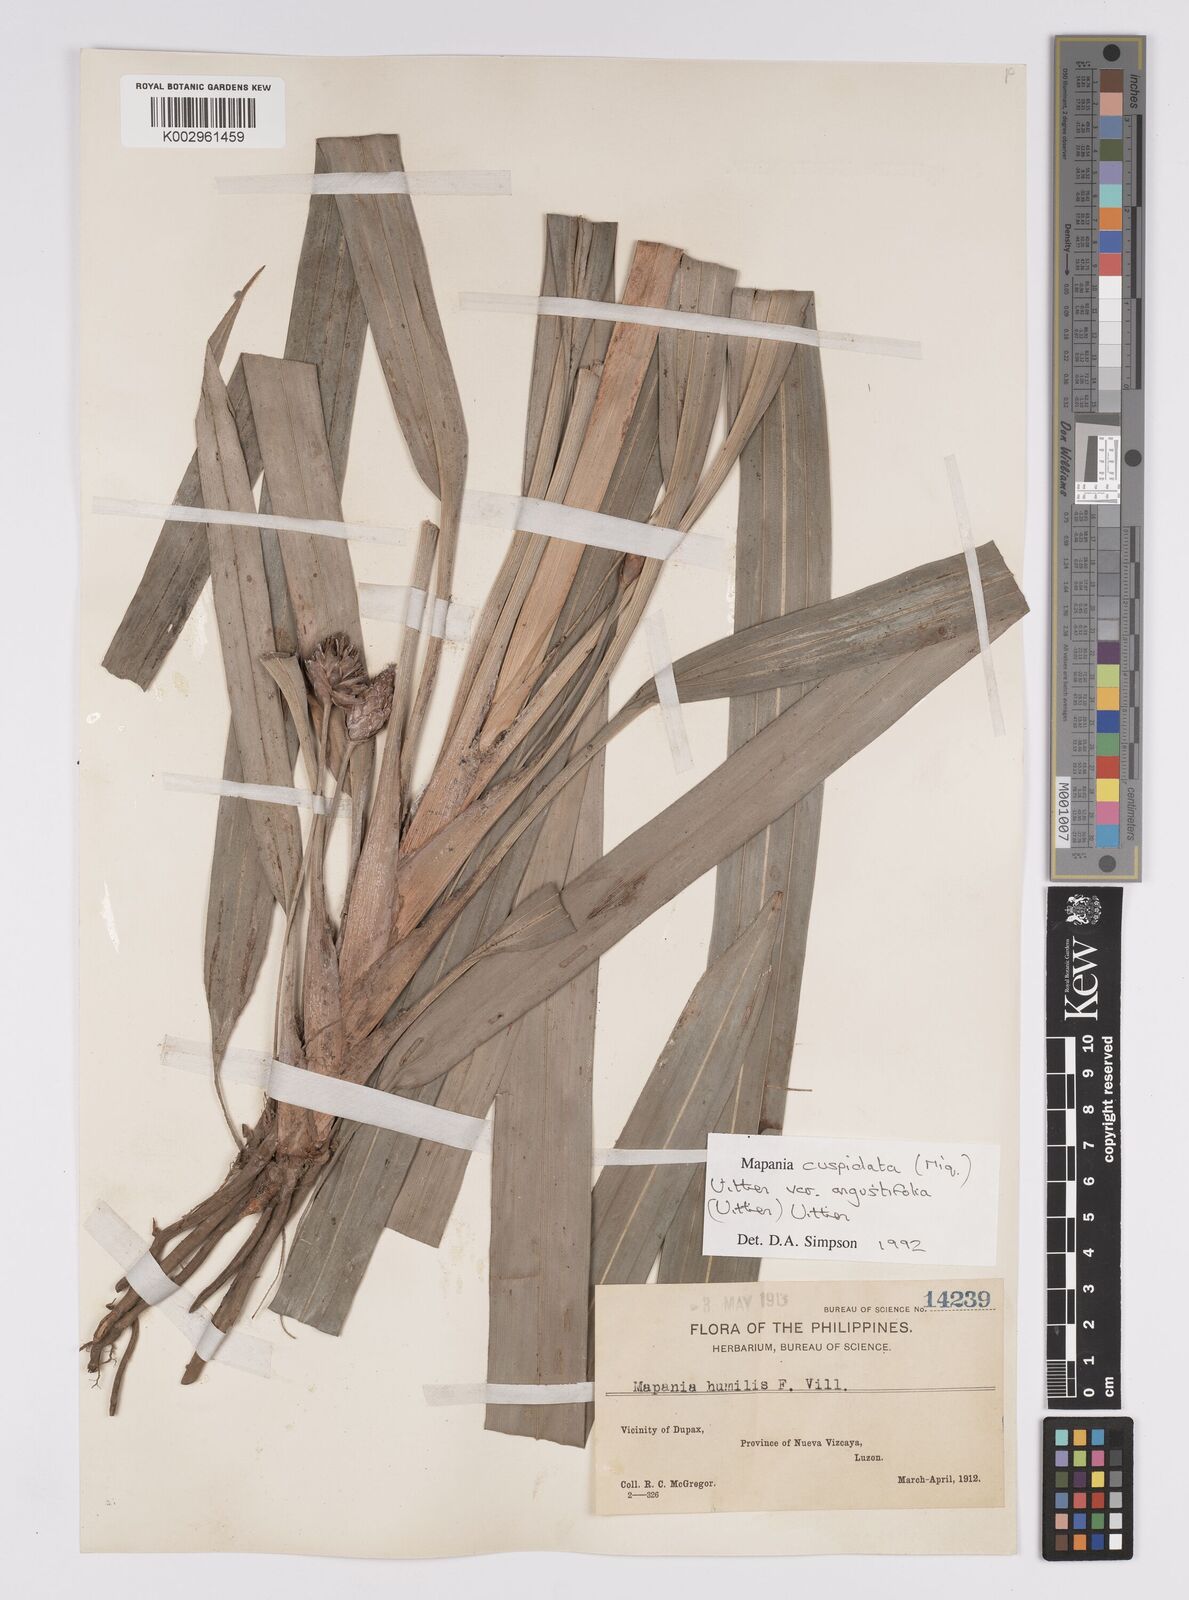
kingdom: Plantae
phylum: Tracheophyta
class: Liliopsida
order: Poales
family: Cyperaceae
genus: Mapania
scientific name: Mapania cuspidata
